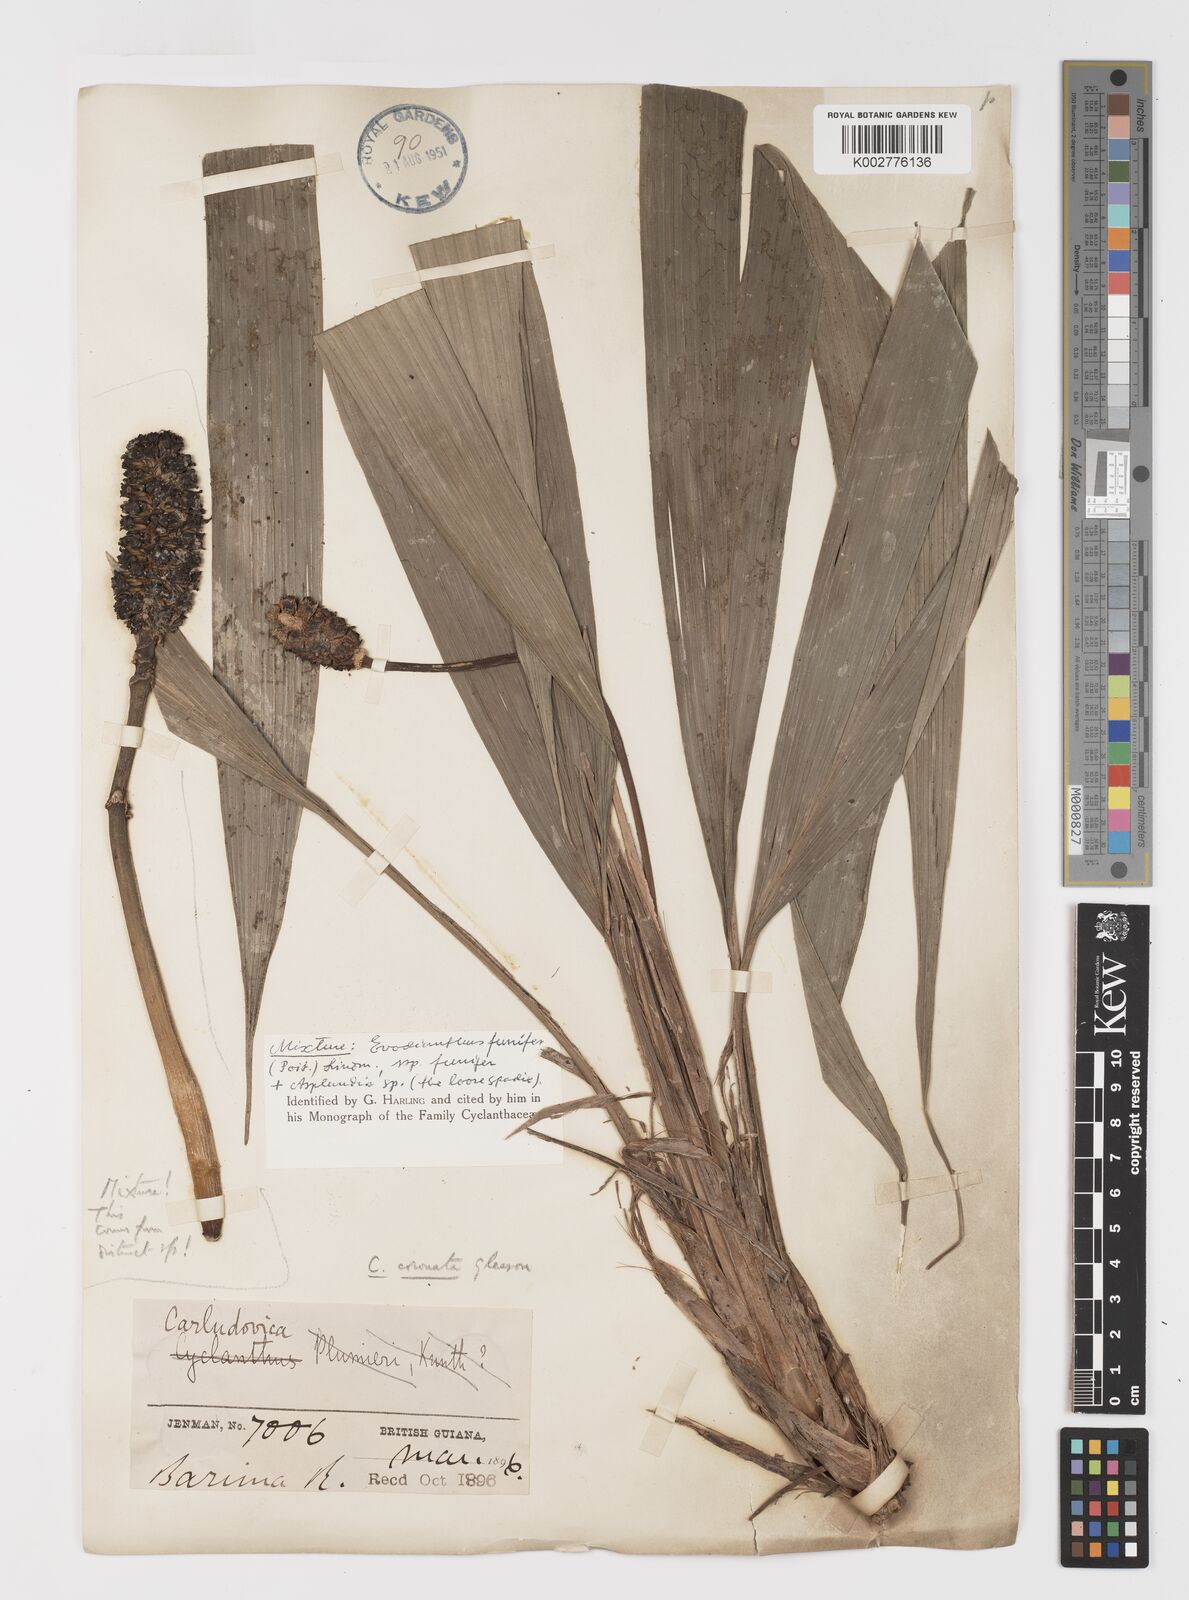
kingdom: Plantae
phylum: Tracheophyta
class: Liliopsida
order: Pandanales
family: Cyclanthaceae
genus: Evodianthus
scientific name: Evodianthus funifer
